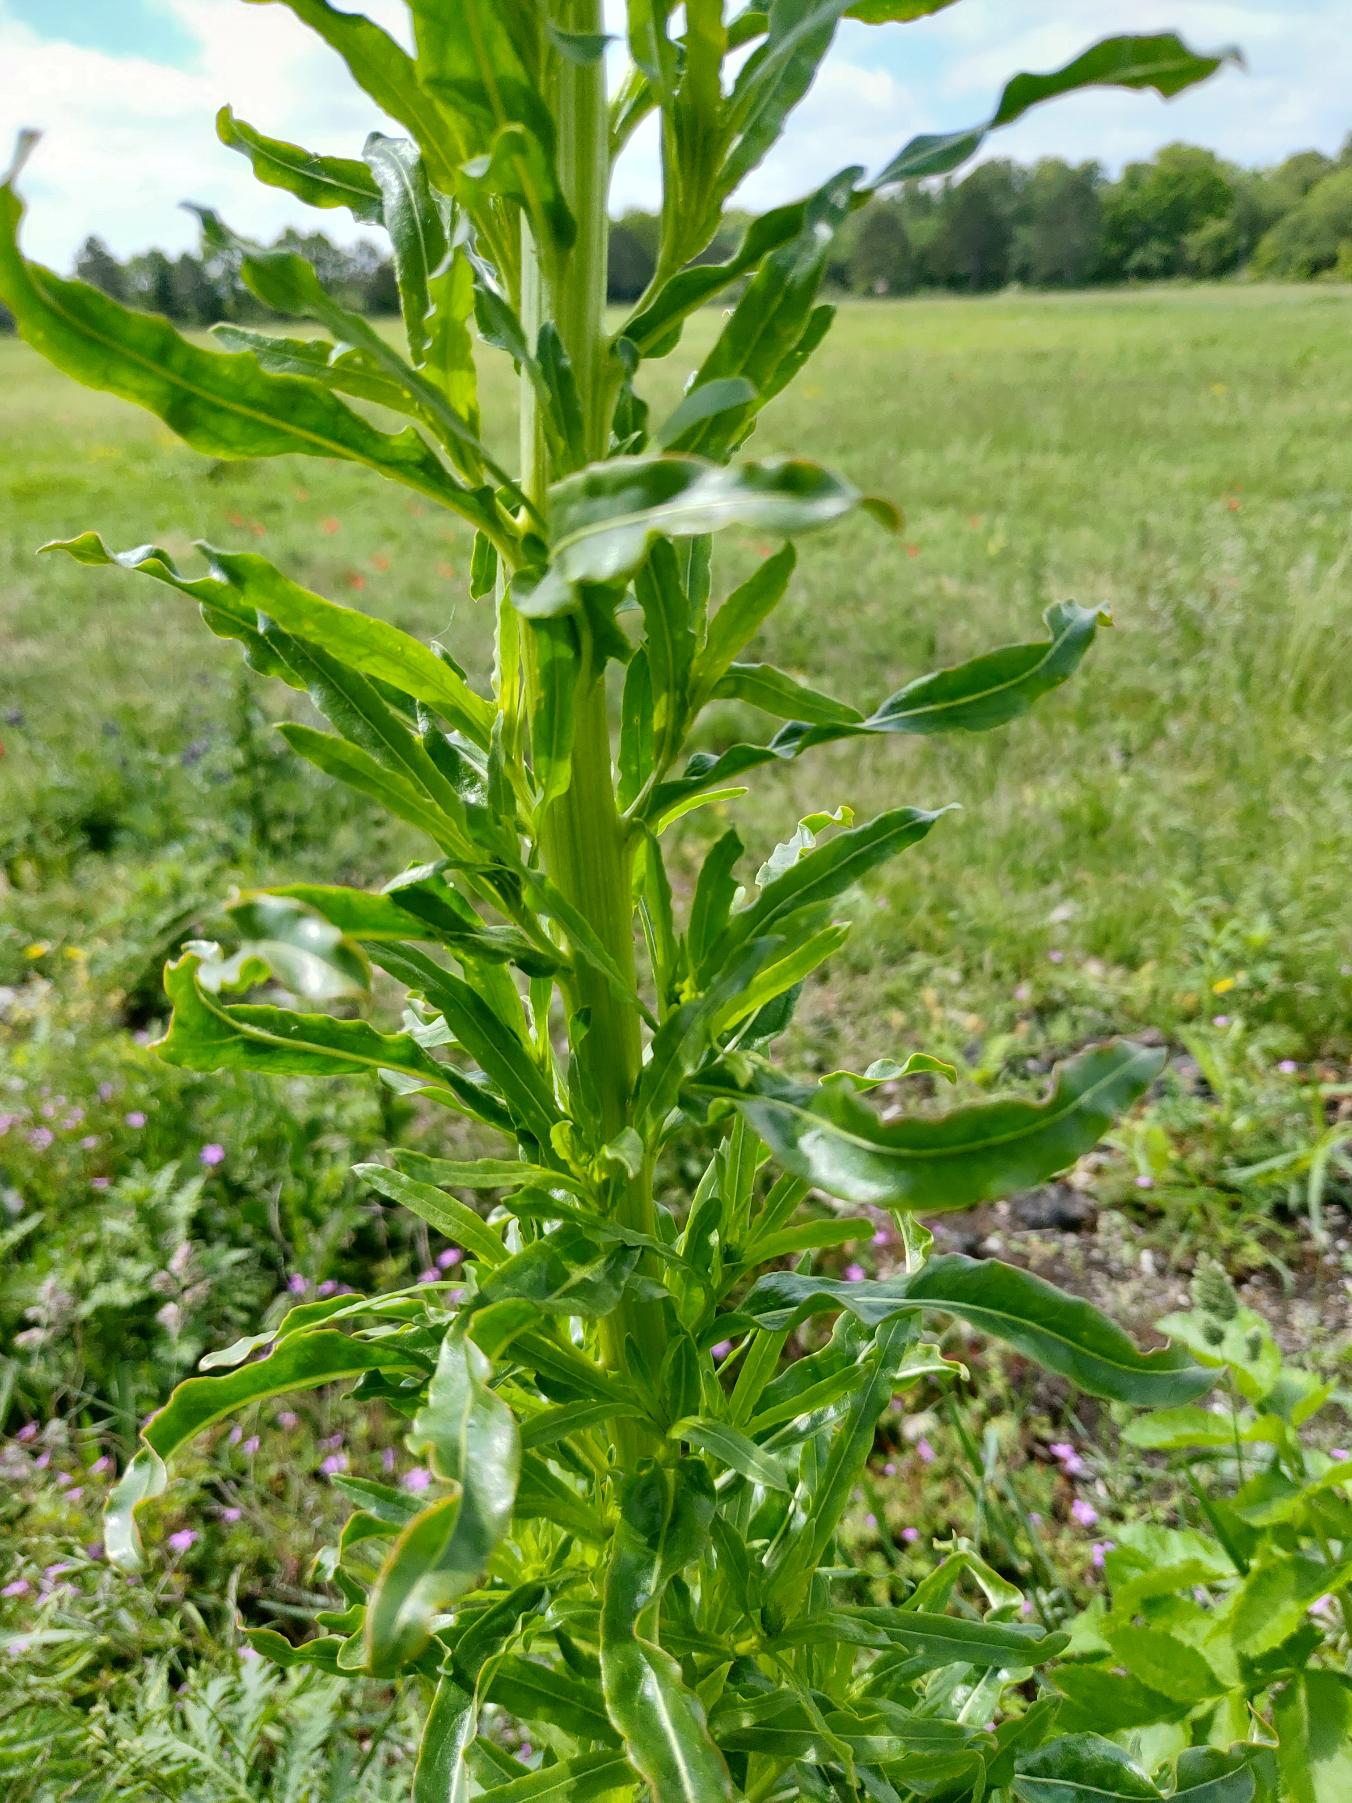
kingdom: Plantae
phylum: Tracheophyta
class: Magnoliopsida
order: Brassicales
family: Resedaceae
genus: Reseda
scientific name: Reseda luteola
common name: Farve-reseda
